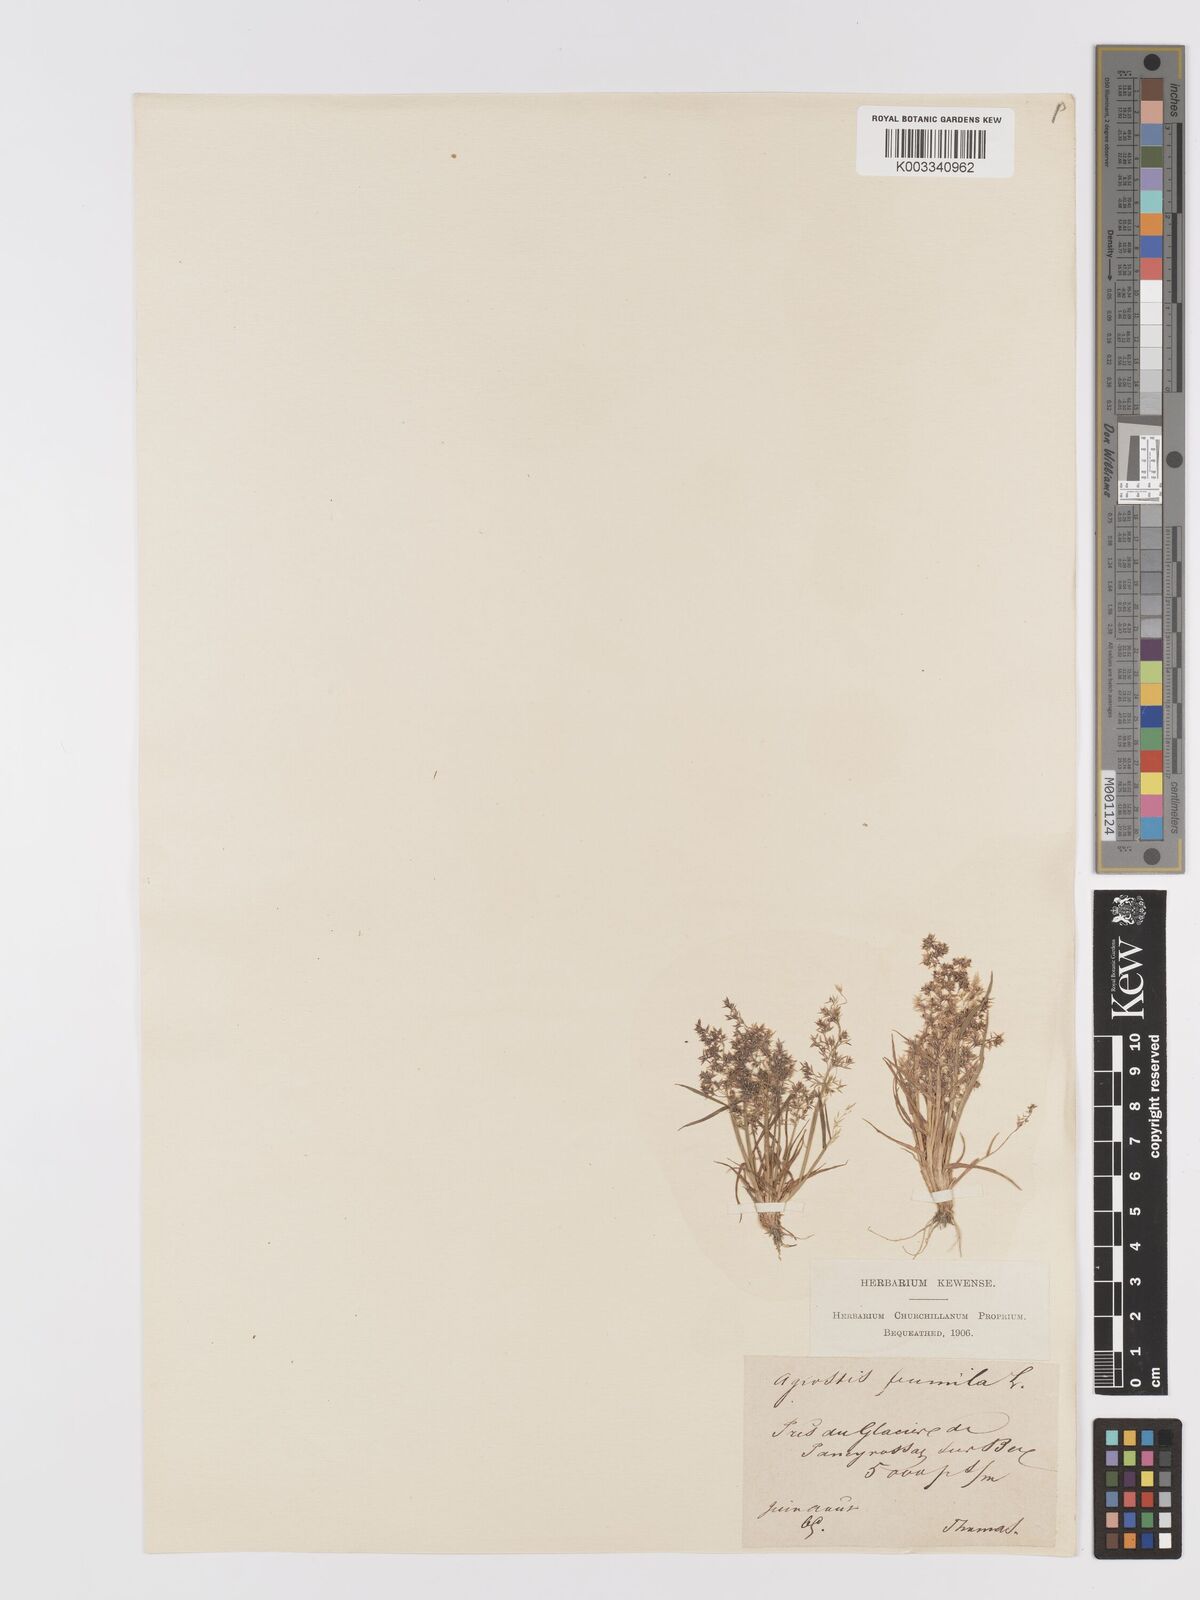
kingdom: Plantae
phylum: Tracheophyta
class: Liliopsida
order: Poales
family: Poaceae
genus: Agrostis
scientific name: Agrostis capillaris
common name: Colonial bentgrass
